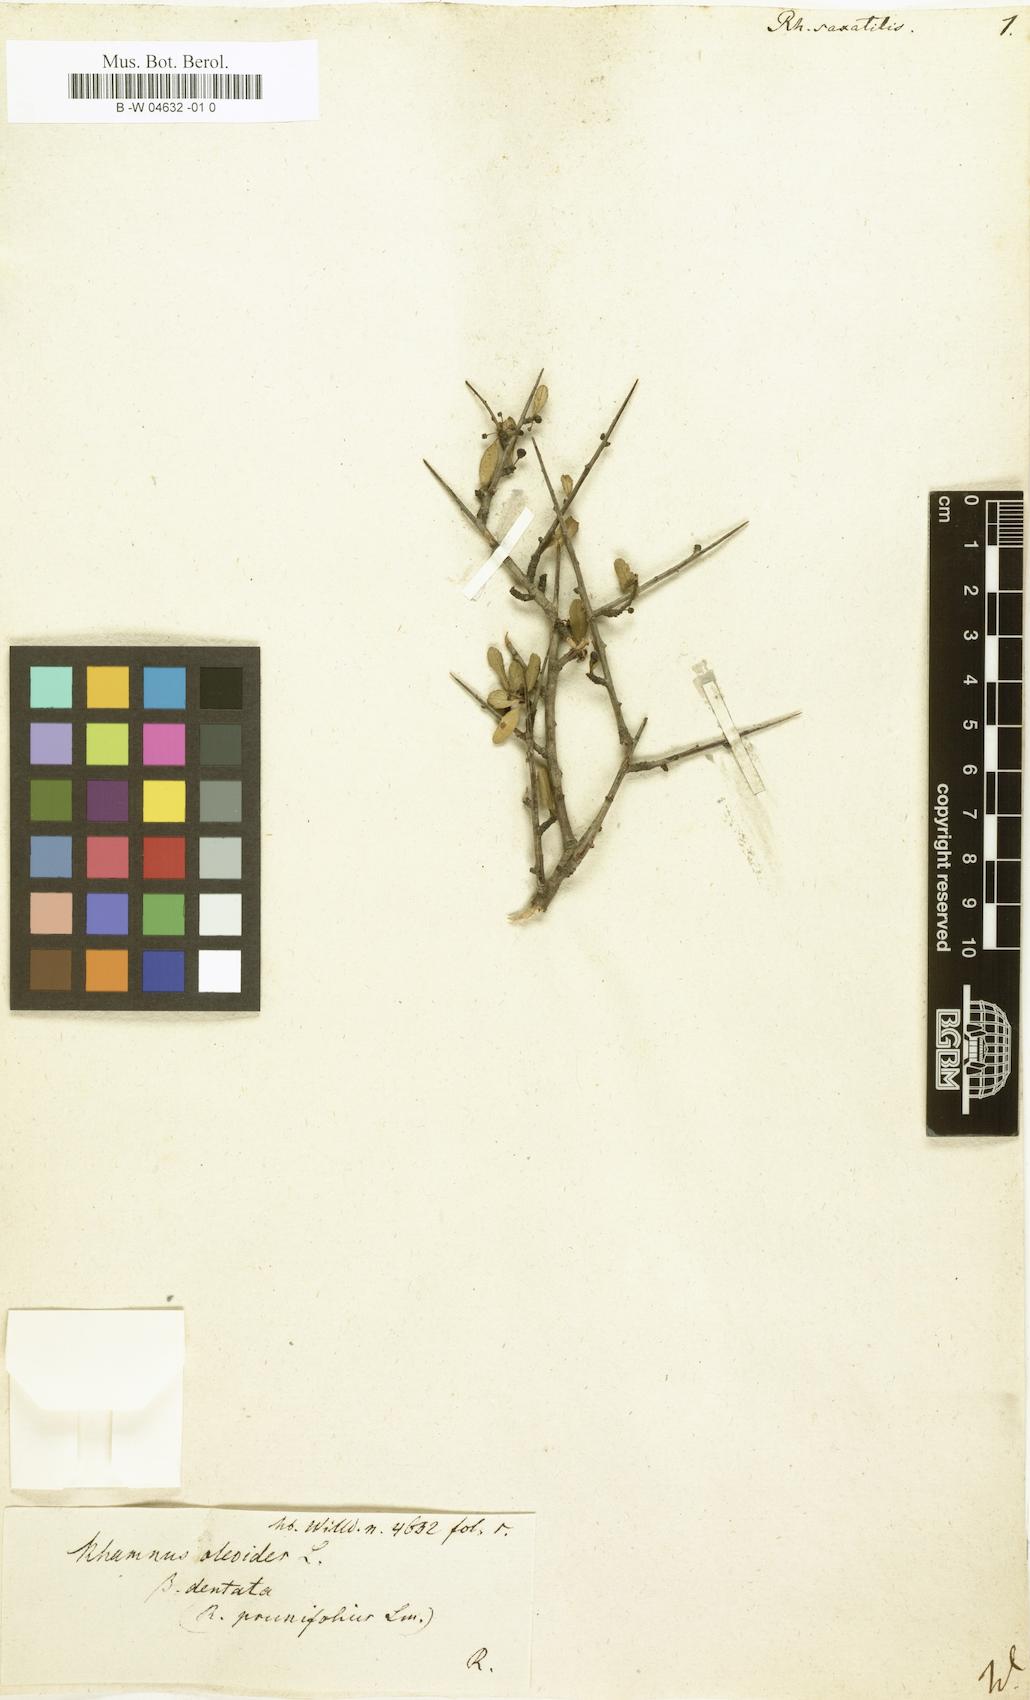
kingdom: Plantae
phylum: Tracheophyta
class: Magnoliopsida
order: Rosales
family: Rhamnaceae
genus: Rhamnus
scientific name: Rhamnus saxatilis
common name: Rock buckthorn
